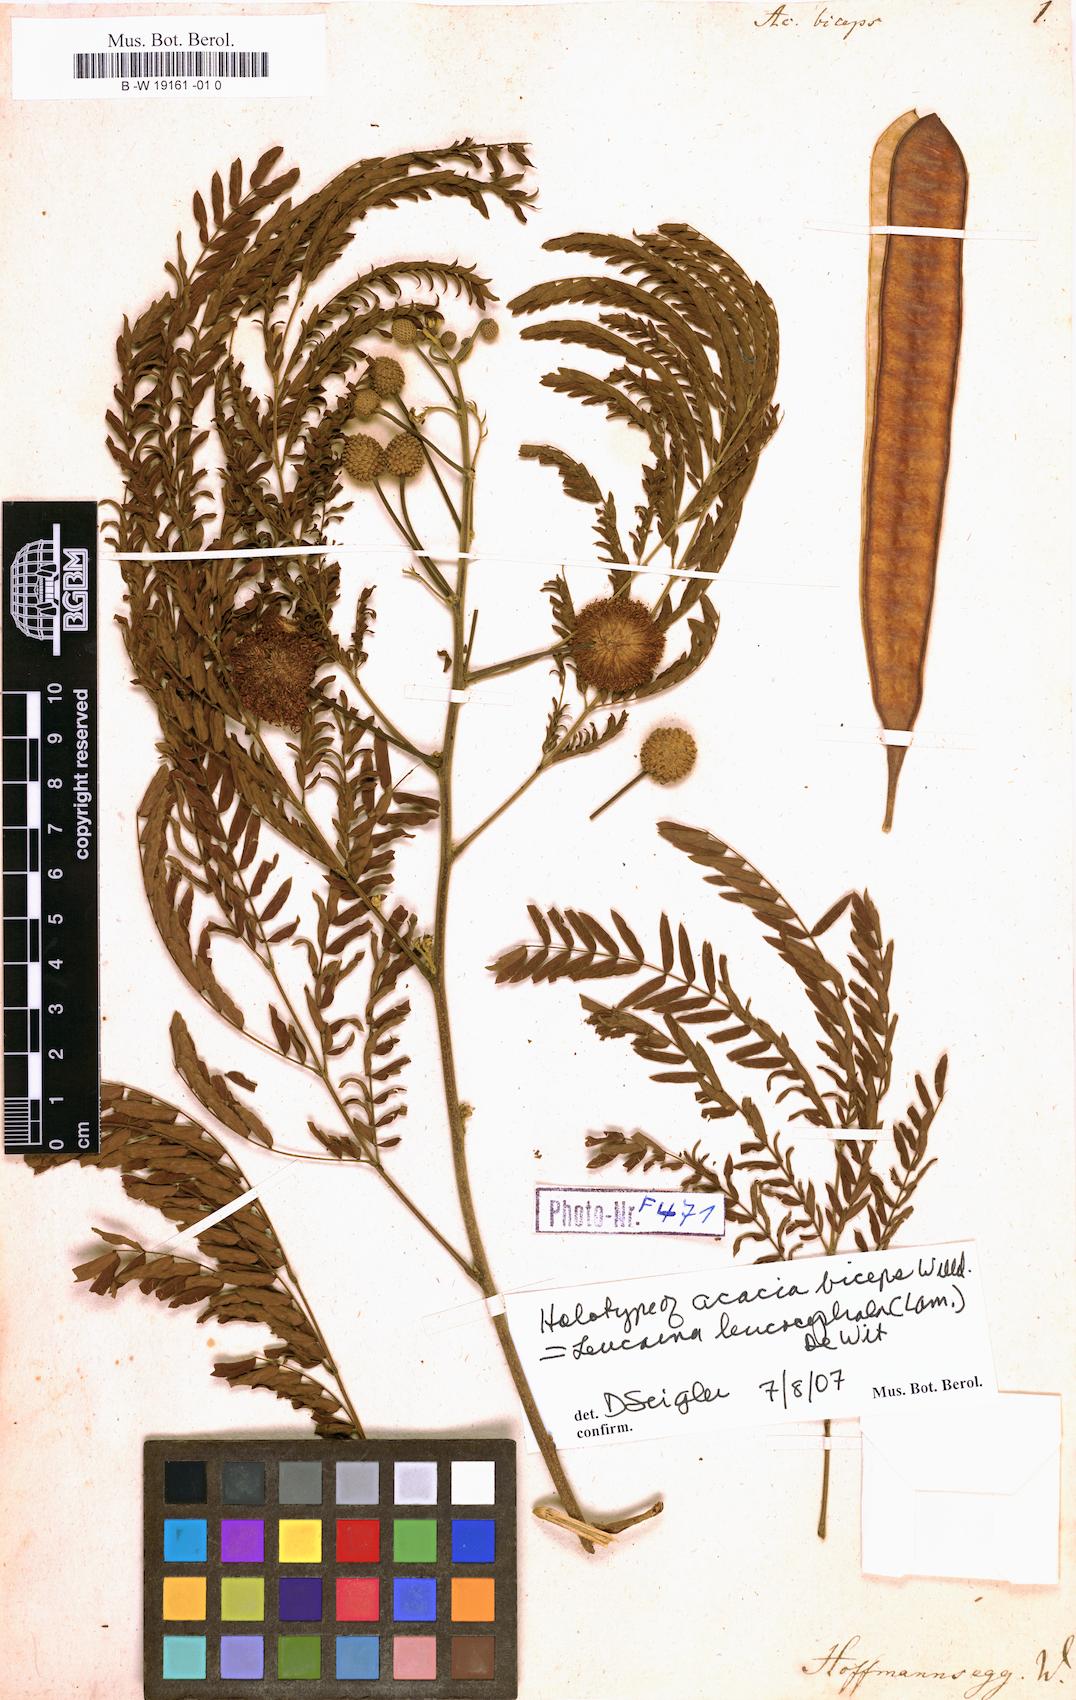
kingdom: Plantae
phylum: Tracheophyta
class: Magnoliopsida
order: Fabales
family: Fabaceae
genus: Leucaena
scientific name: Leucaena leucocephala
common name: White leadtree
